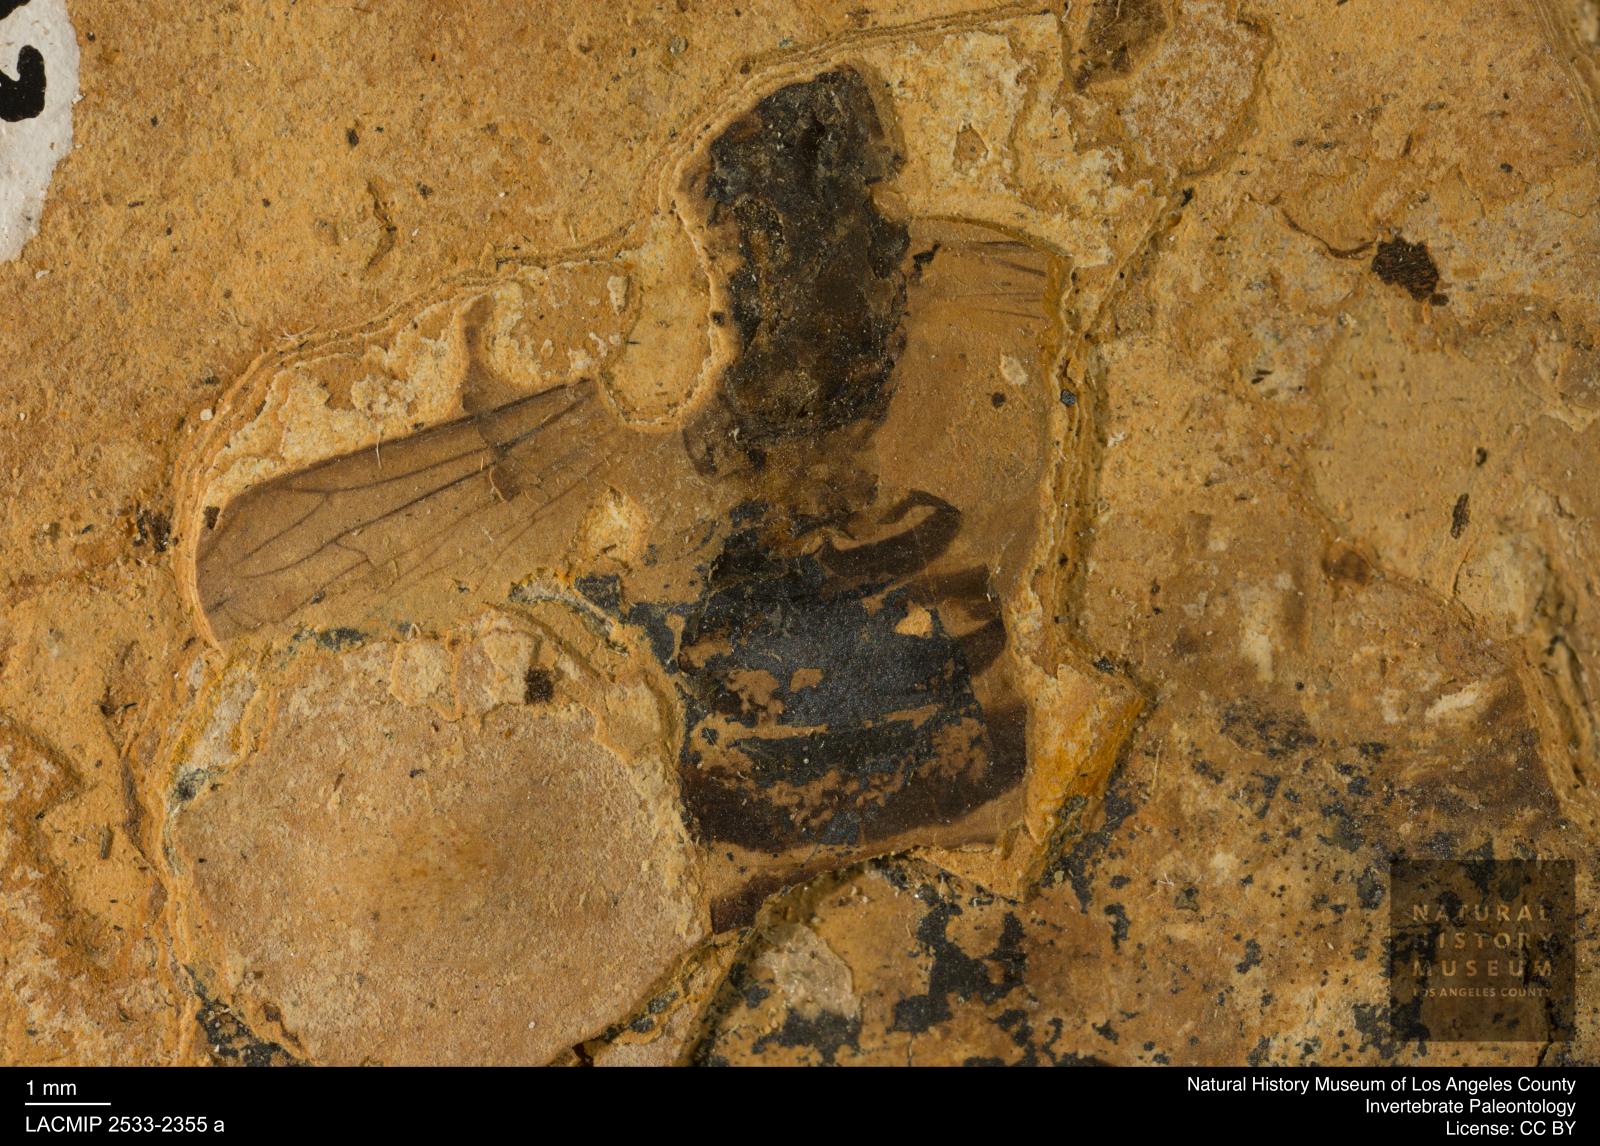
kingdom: Animalia
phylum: Arthropoda
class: Insecta
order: Hymenoptera
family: Formicidae
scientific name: Formicidae
